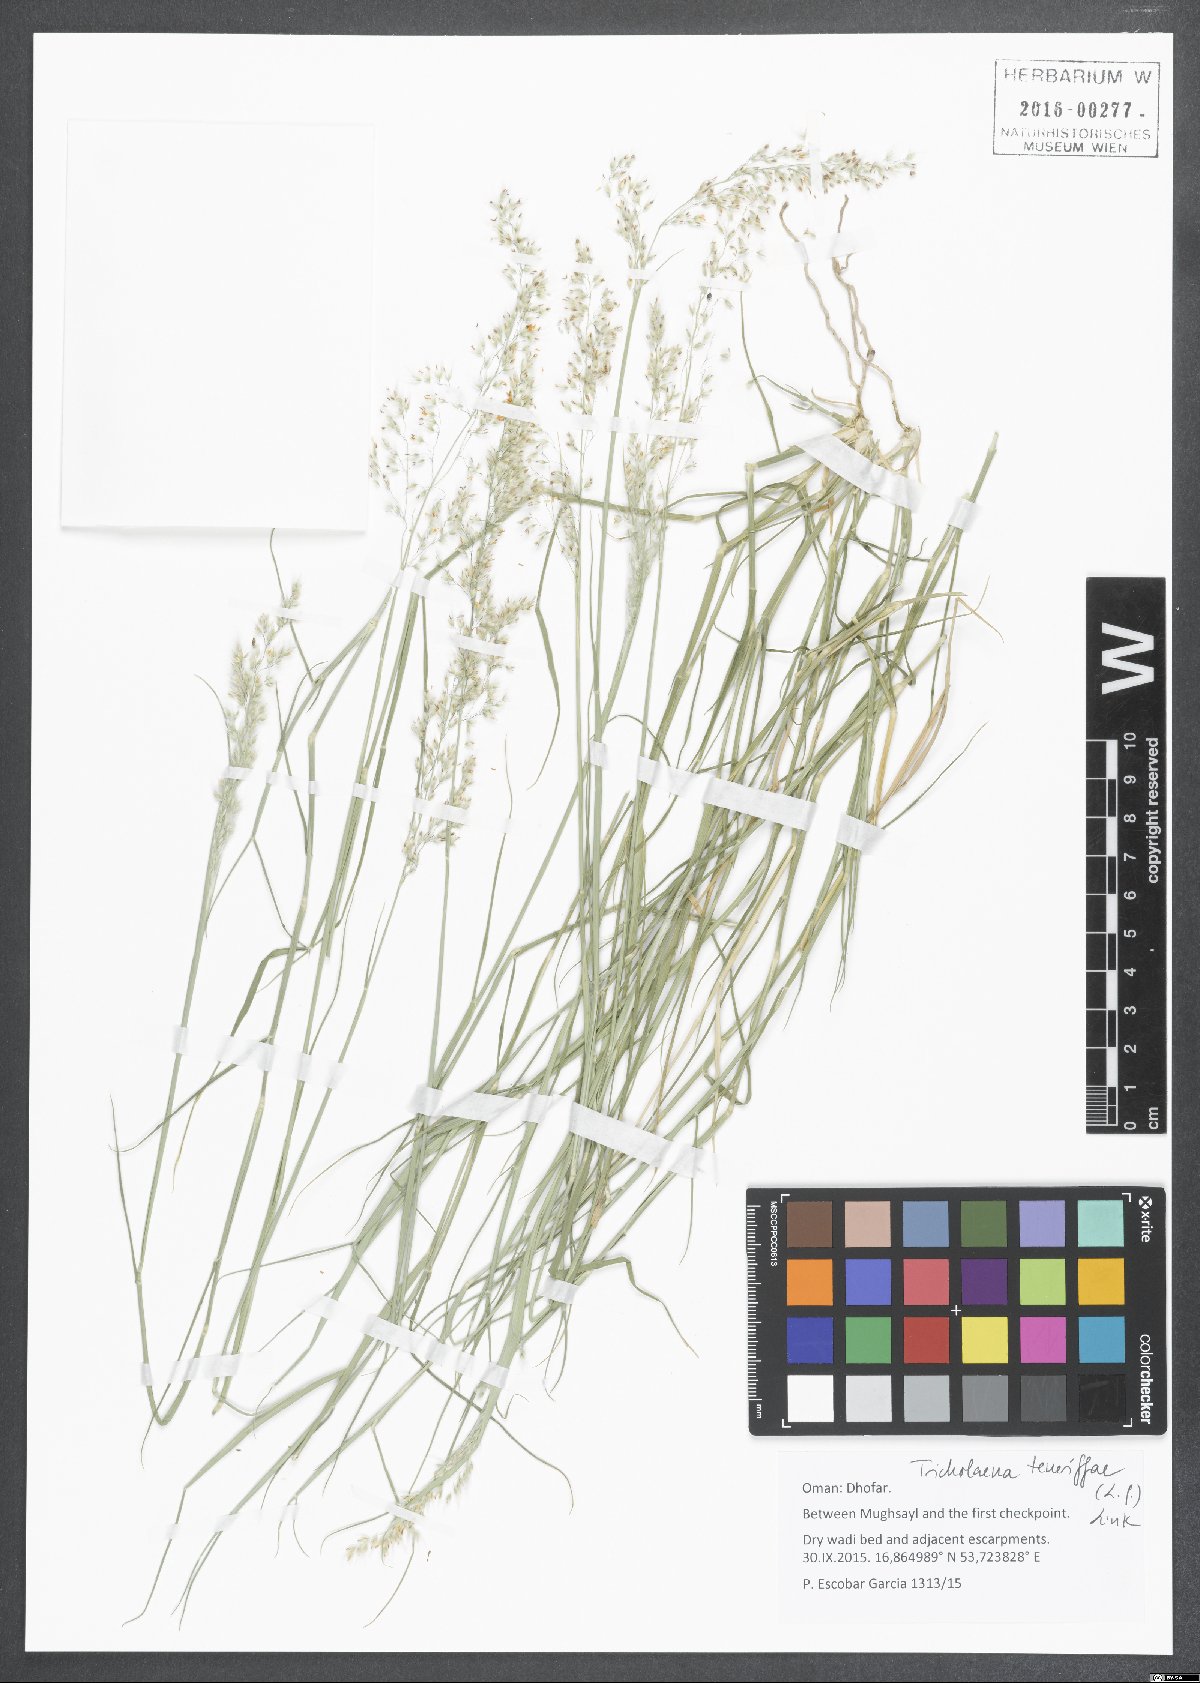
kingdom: Plantae
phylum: Tracheophyta
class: Liliopsida
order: Poales
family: Poaceae
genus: Tricholaena
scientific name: Tricholaena teneriffae
